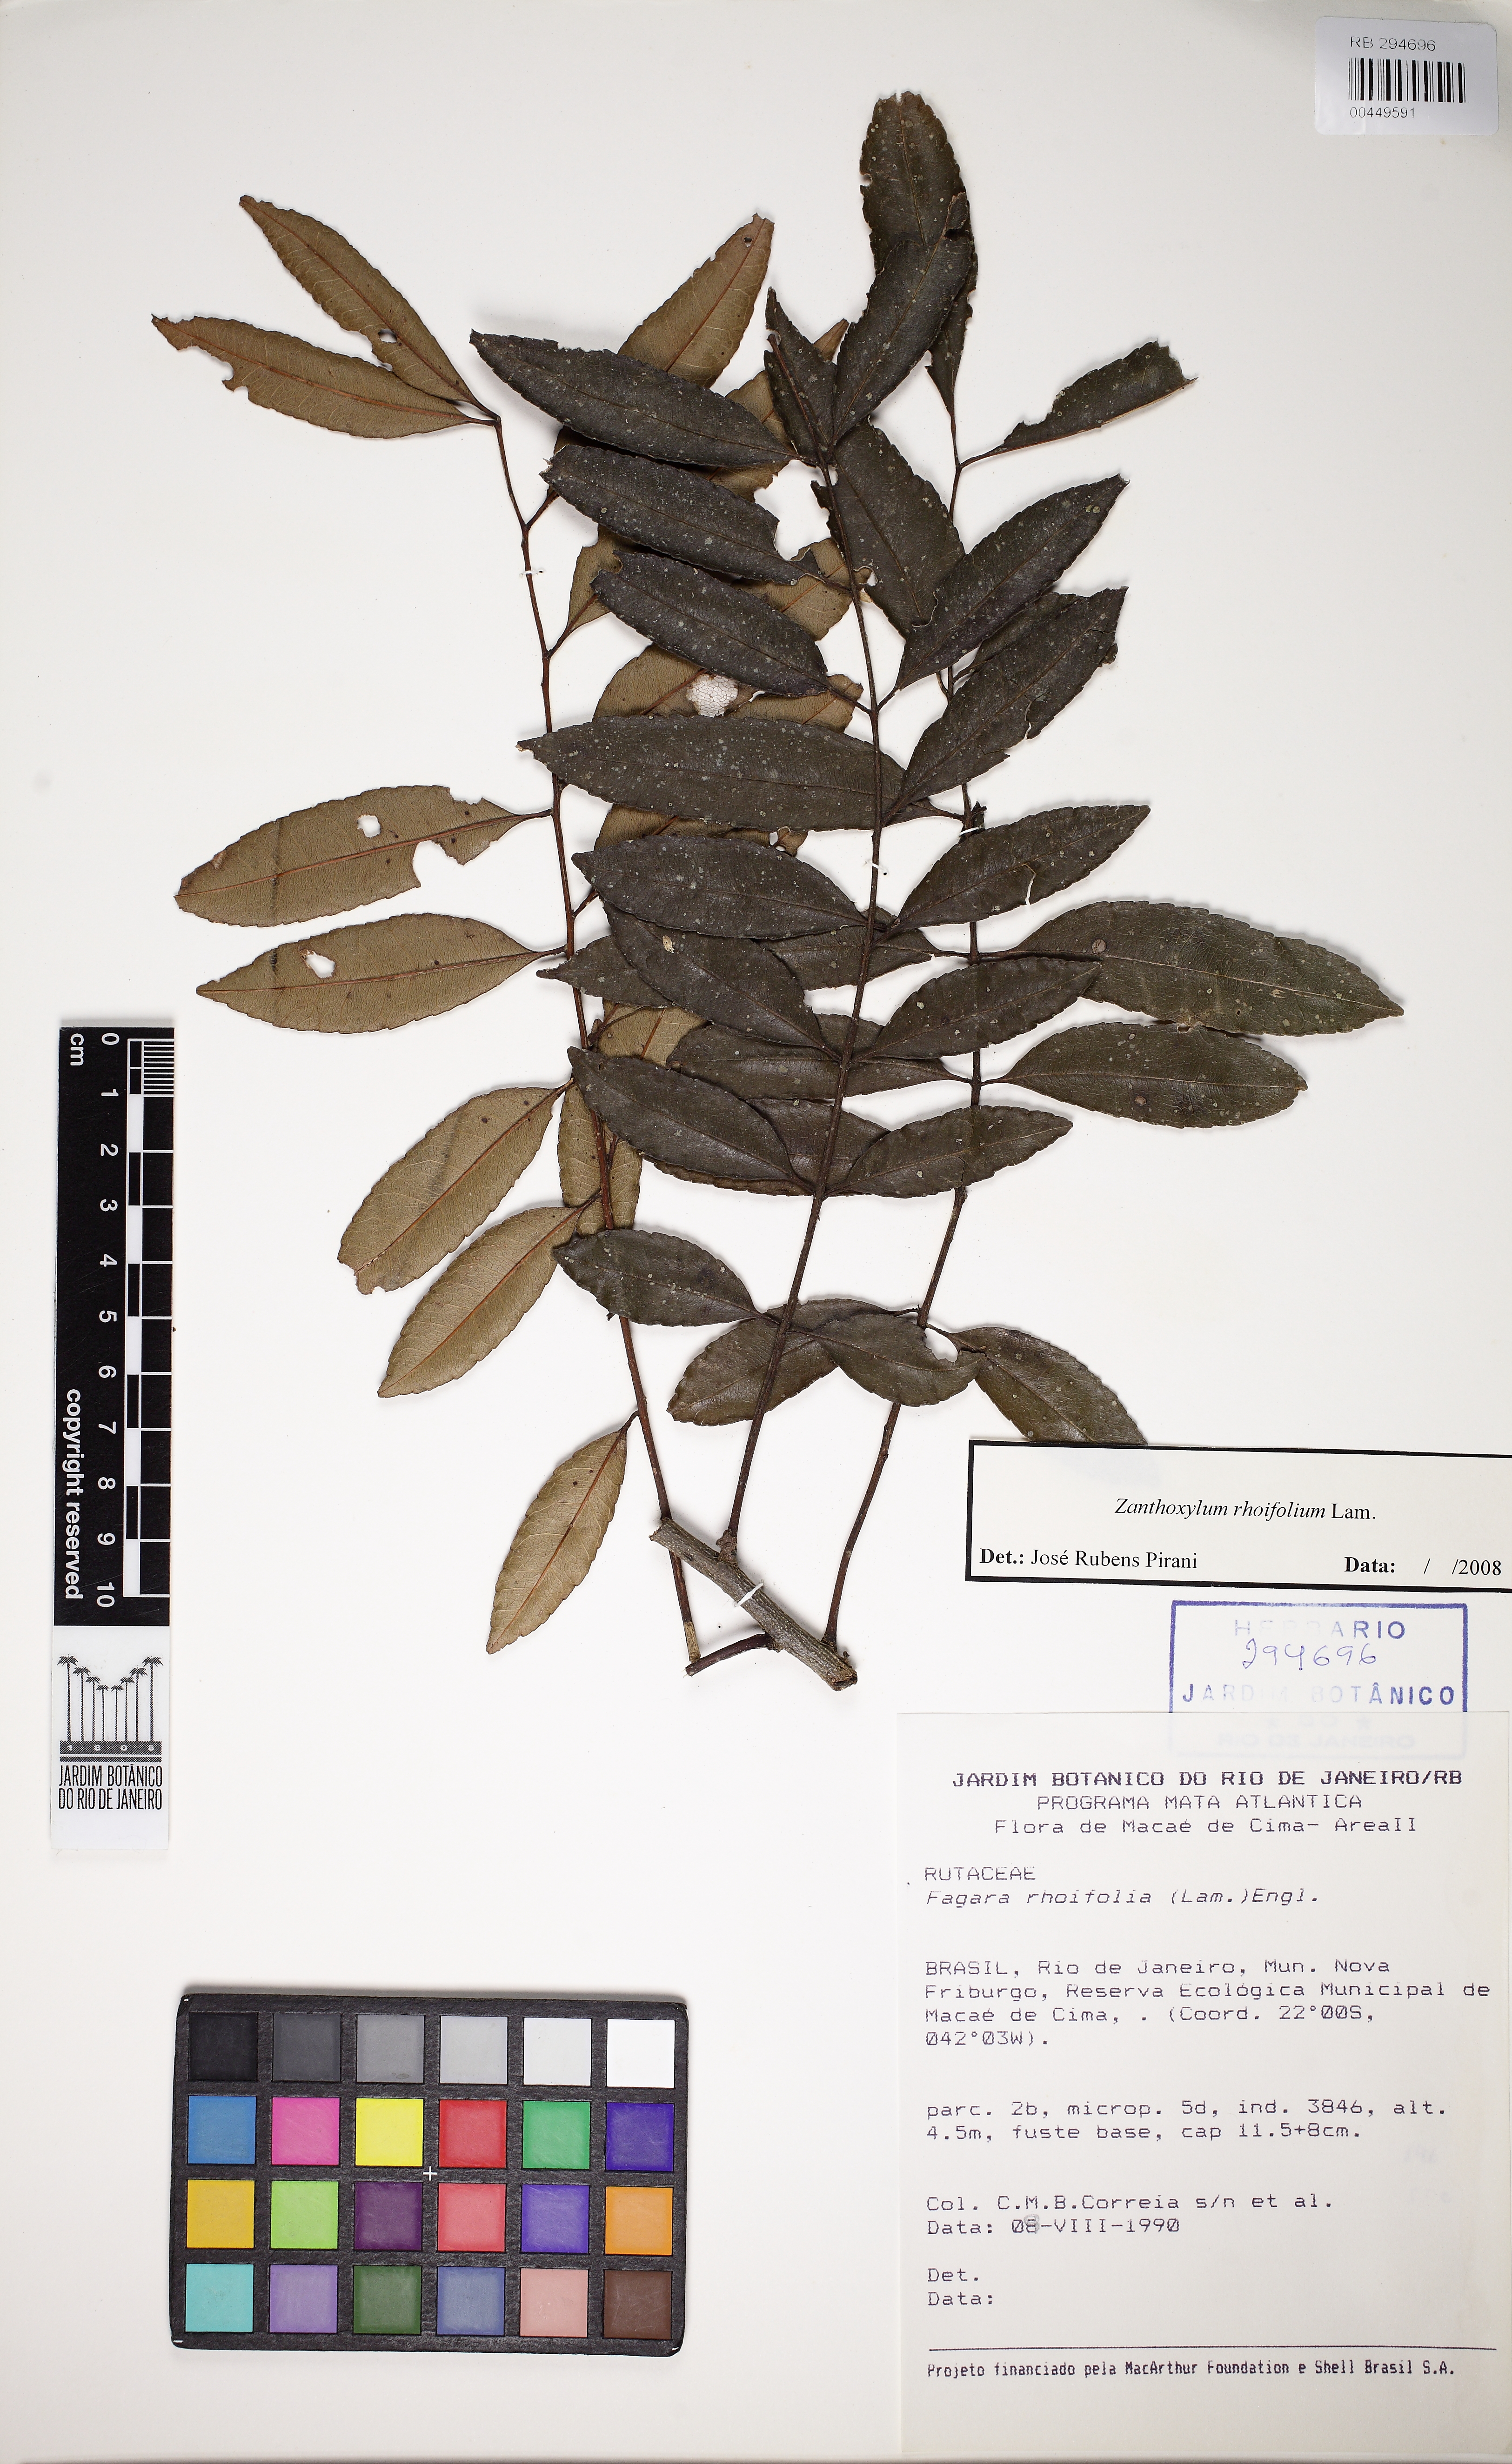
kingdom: Plantae
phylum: Tracheophyta
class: Magnoliopsida
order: Sapindales
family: Rutaceae
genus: Zanthoxylum
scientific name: Zanthoxylum rhoifolium
